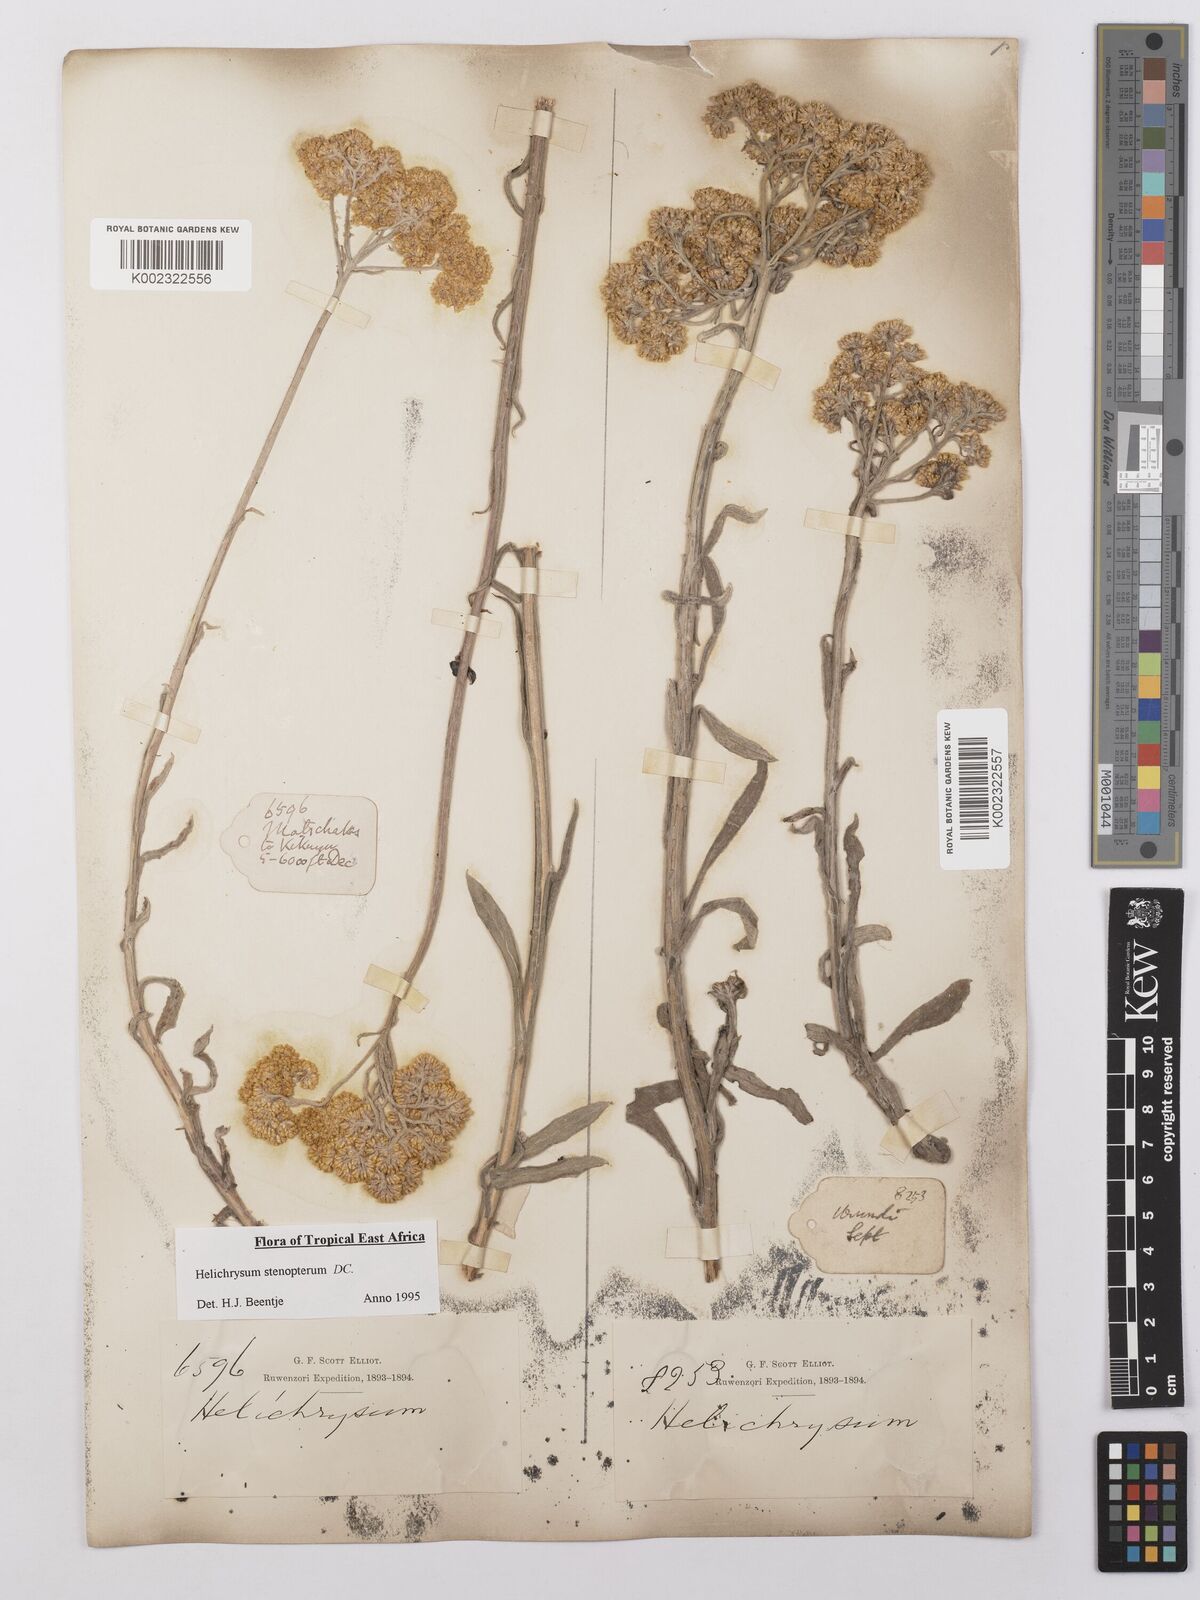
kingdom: Plantae
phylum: Tracheophyta
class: Magnoliopsida
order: Asterales
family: Asteraceae
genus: Helichrysum
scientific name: Helichrysum stenopterum
